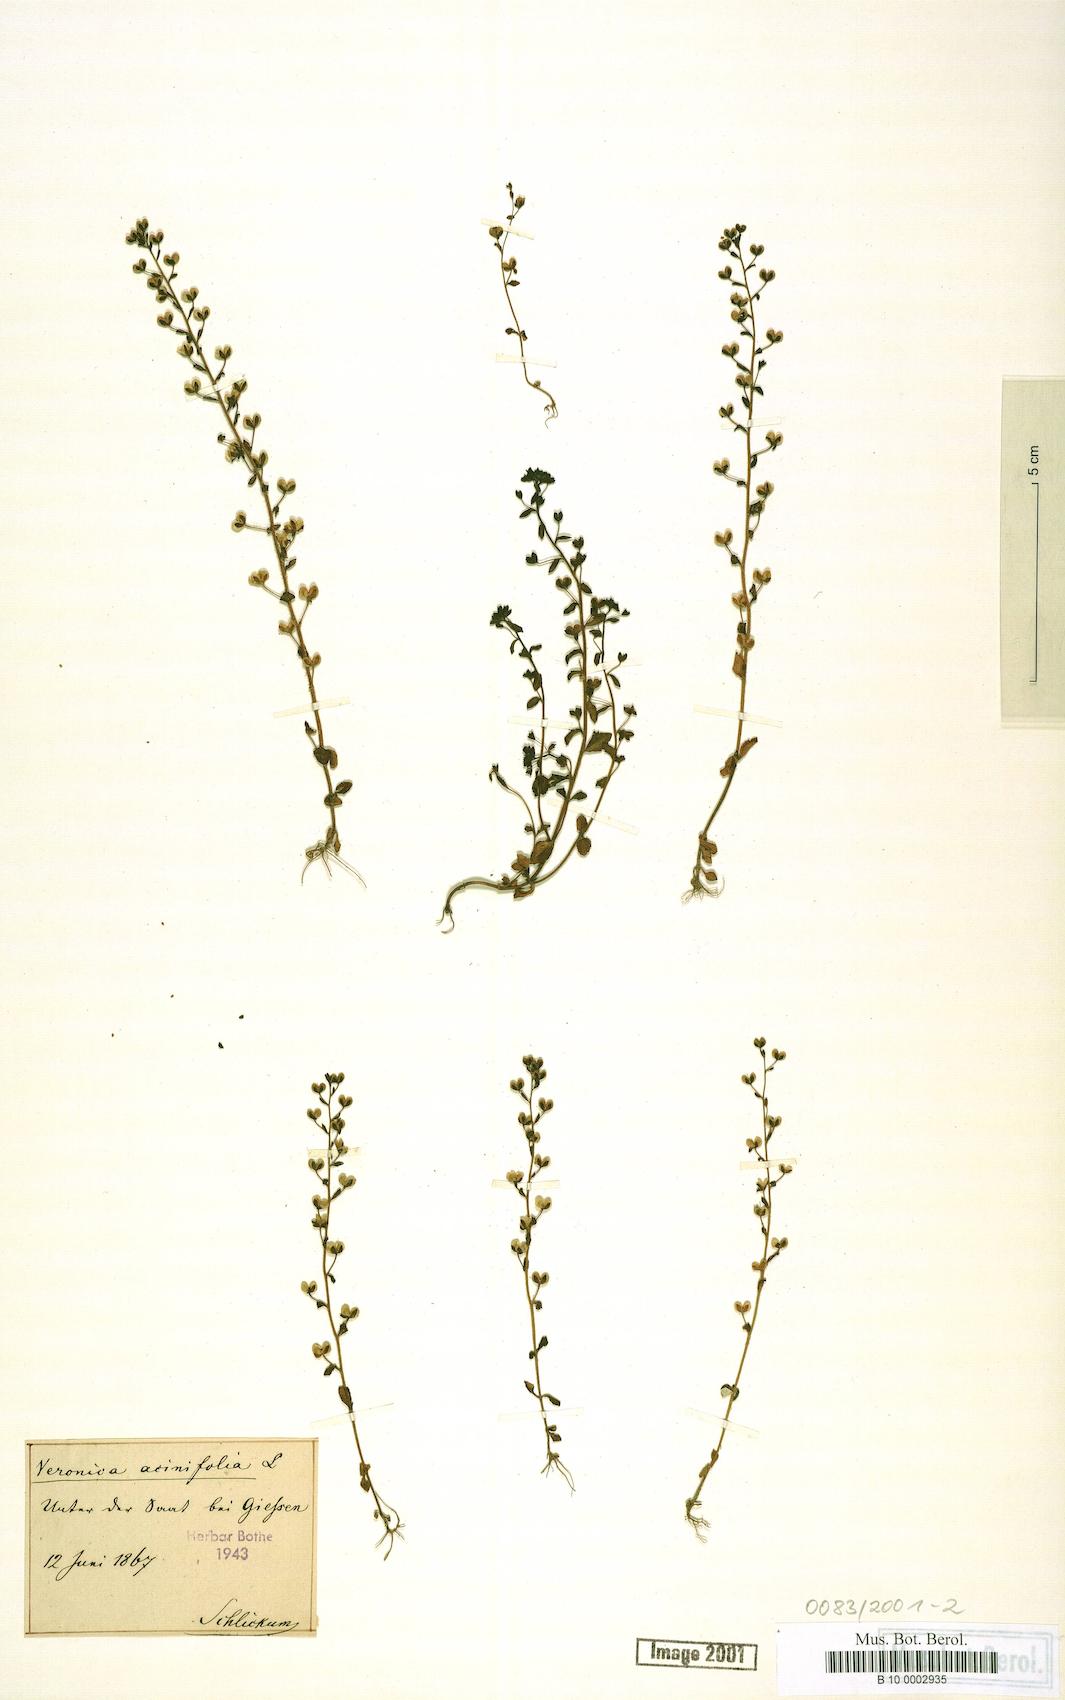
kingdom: Plantae
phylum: Tracheophyta
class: Magnoliopsida
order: Lamiales
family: Plantaginaceae
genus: Veronica
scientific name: Veronica acinifolia
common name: French speedwell
